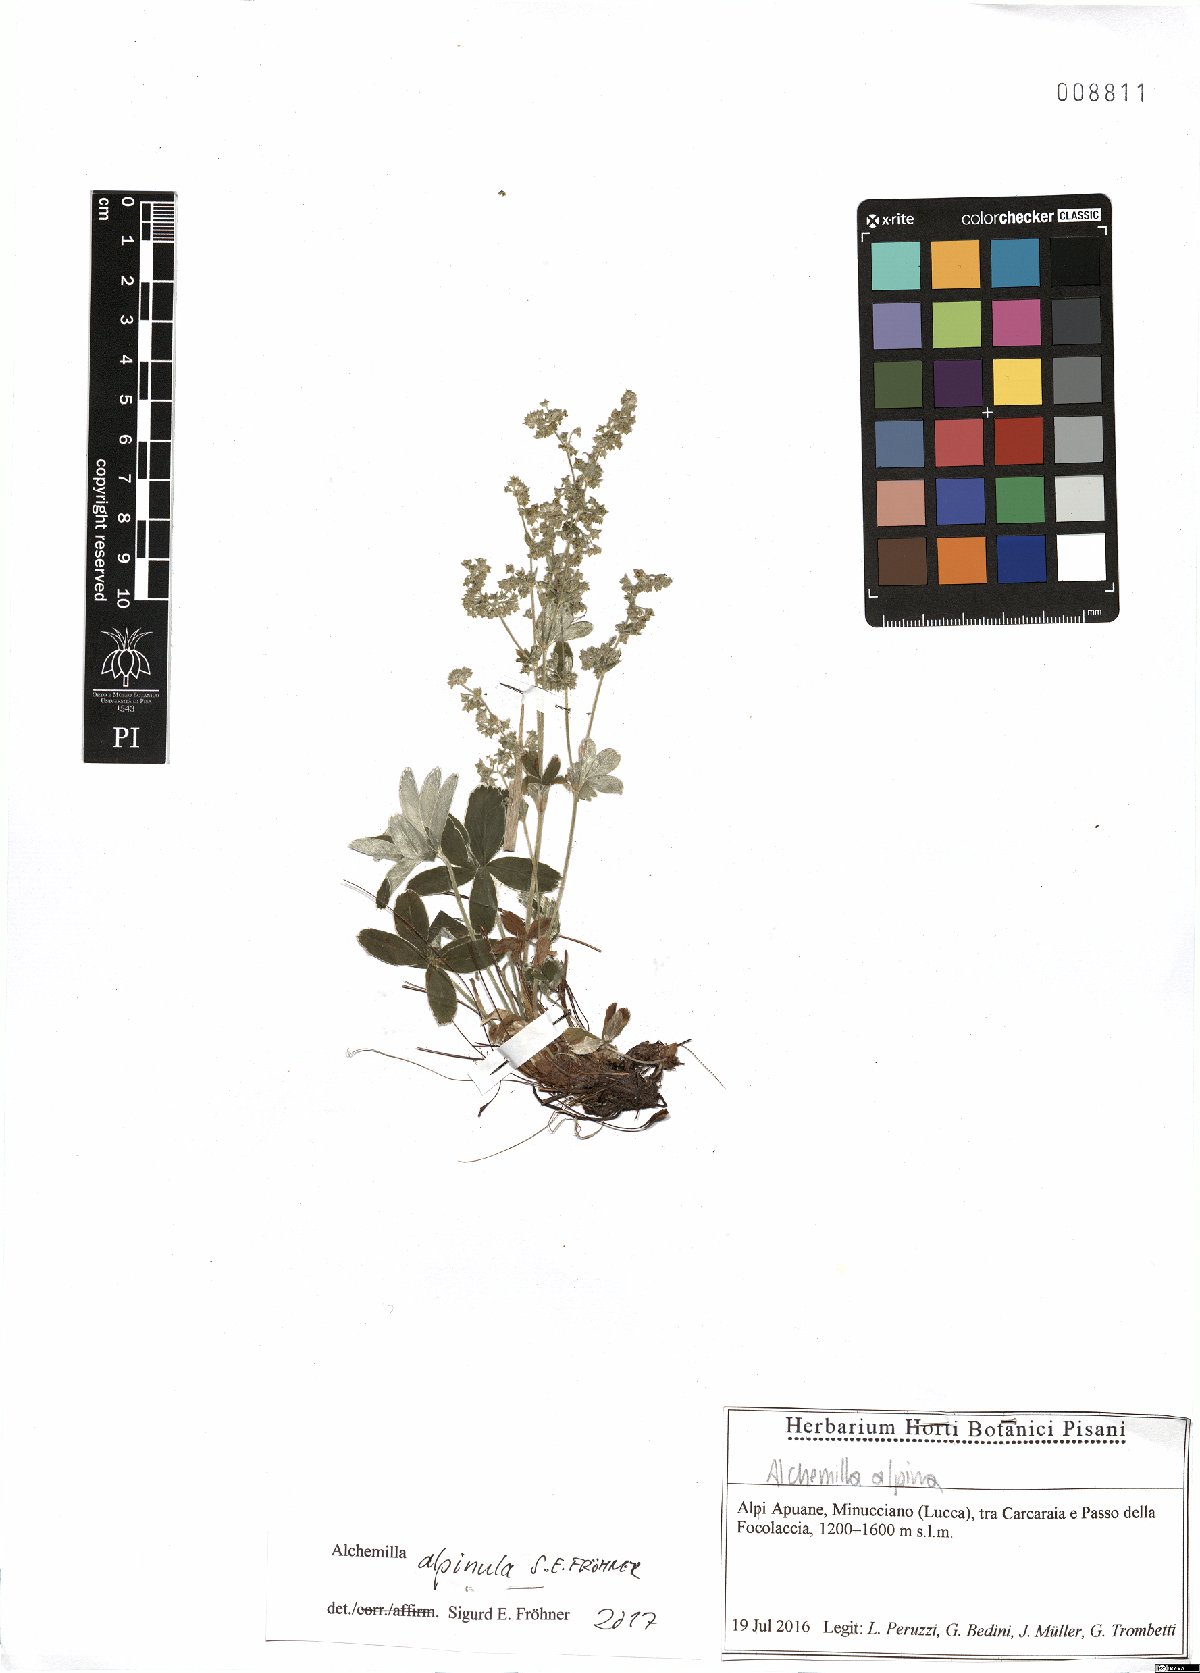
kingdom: Plantae
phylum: Tracheophyta
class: Magnoliopsida
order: Rosales
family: Rosaceae
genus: Alchemilla
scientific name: Alchemilla alpinula
